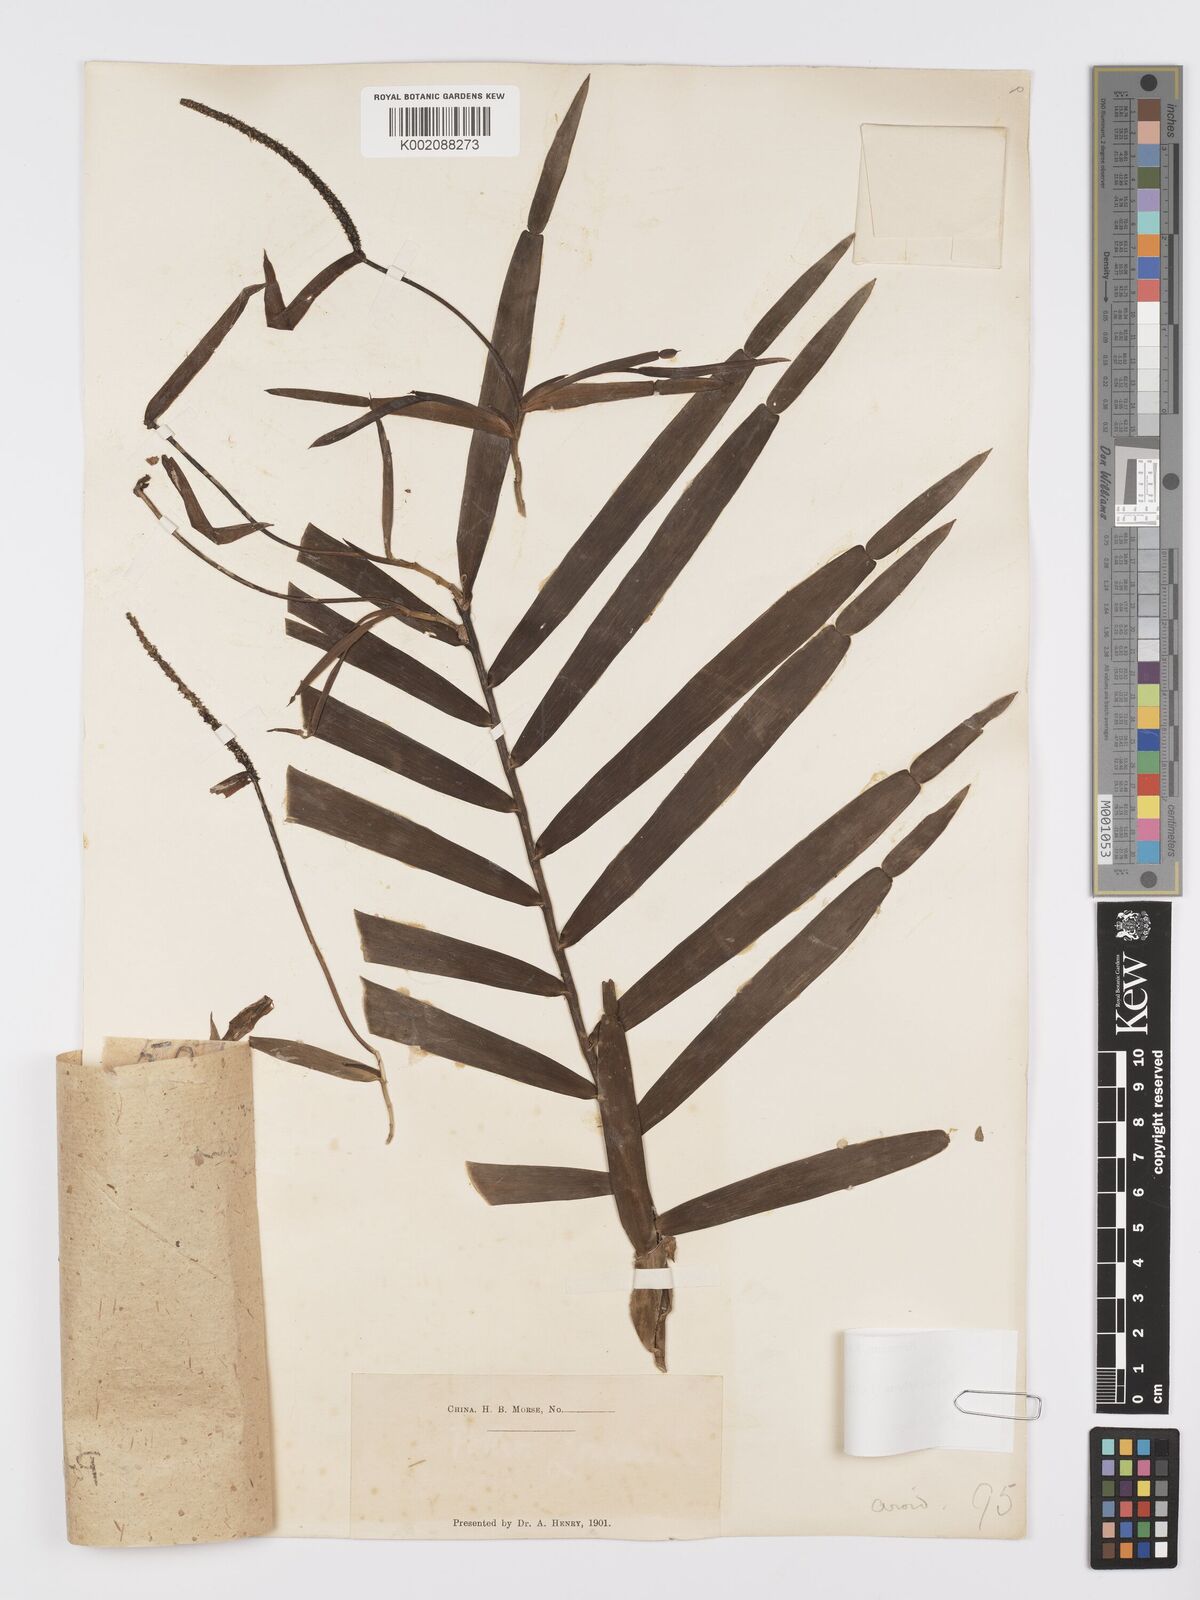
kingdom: Plantae
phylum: Tracheophyta
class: Liliopsida
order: Alismatales
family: Araceae
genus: Pothos
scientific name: Pothos repens
